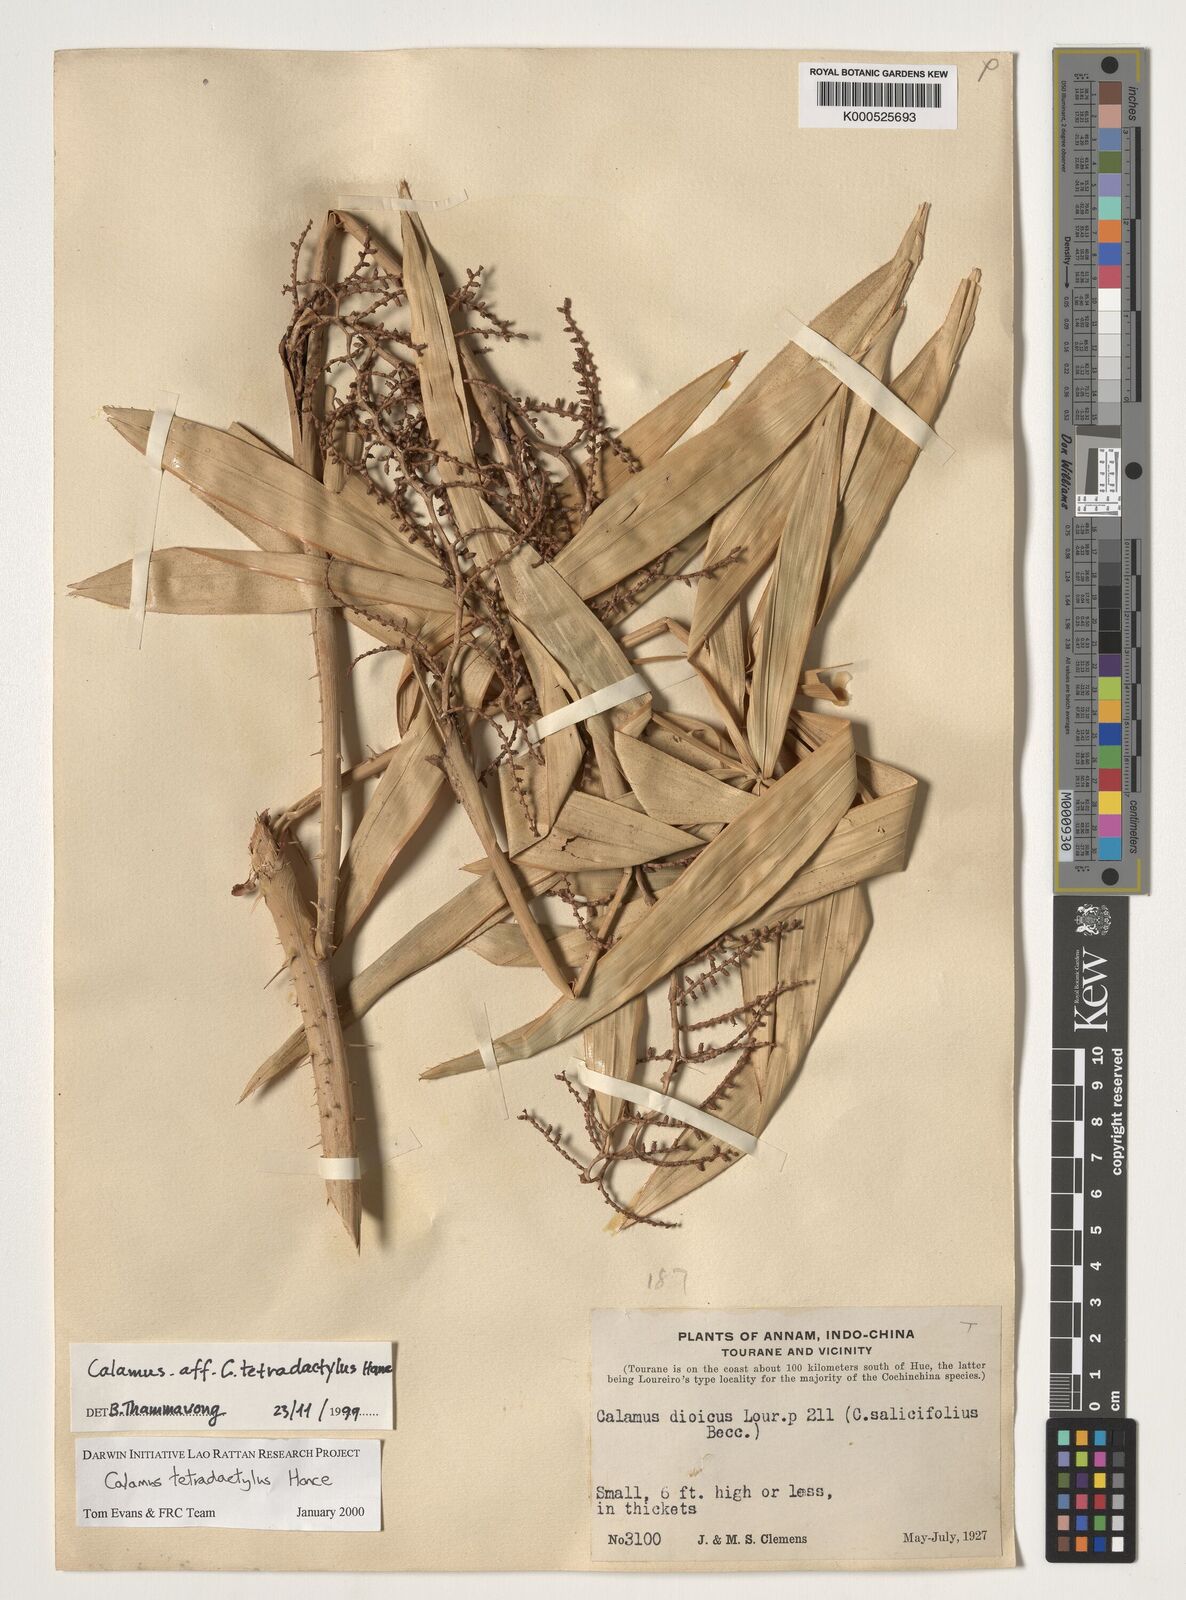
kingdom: Plantae
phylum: Tracheophyta
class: Liliopsida
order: Arecales
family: Arecaceae
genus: Calamus
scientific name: Calamus tetradactylus
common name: White rattan
